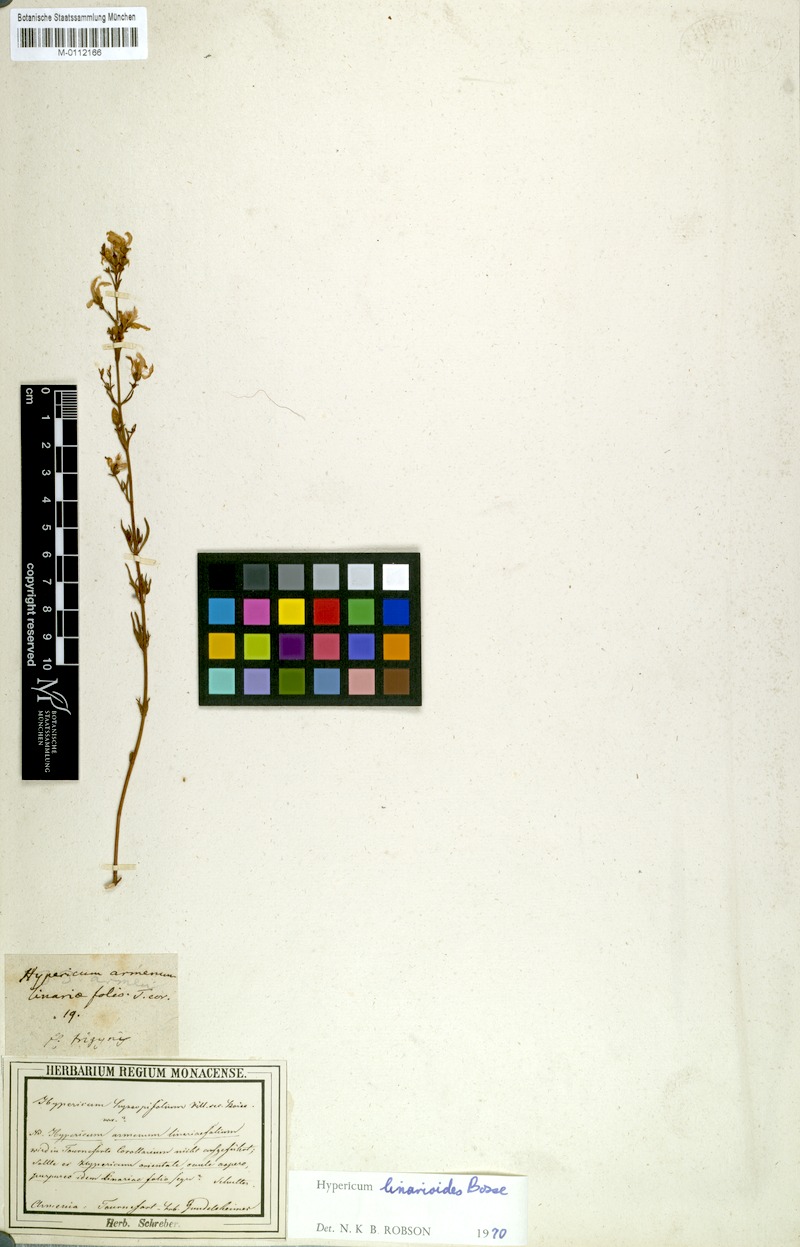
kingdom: Plantae
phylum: Tracheophyta
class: Magnoliopsida
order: Malpighiales
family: Hypericaceae
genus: Hypericum
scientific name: Hypericum linarioides
